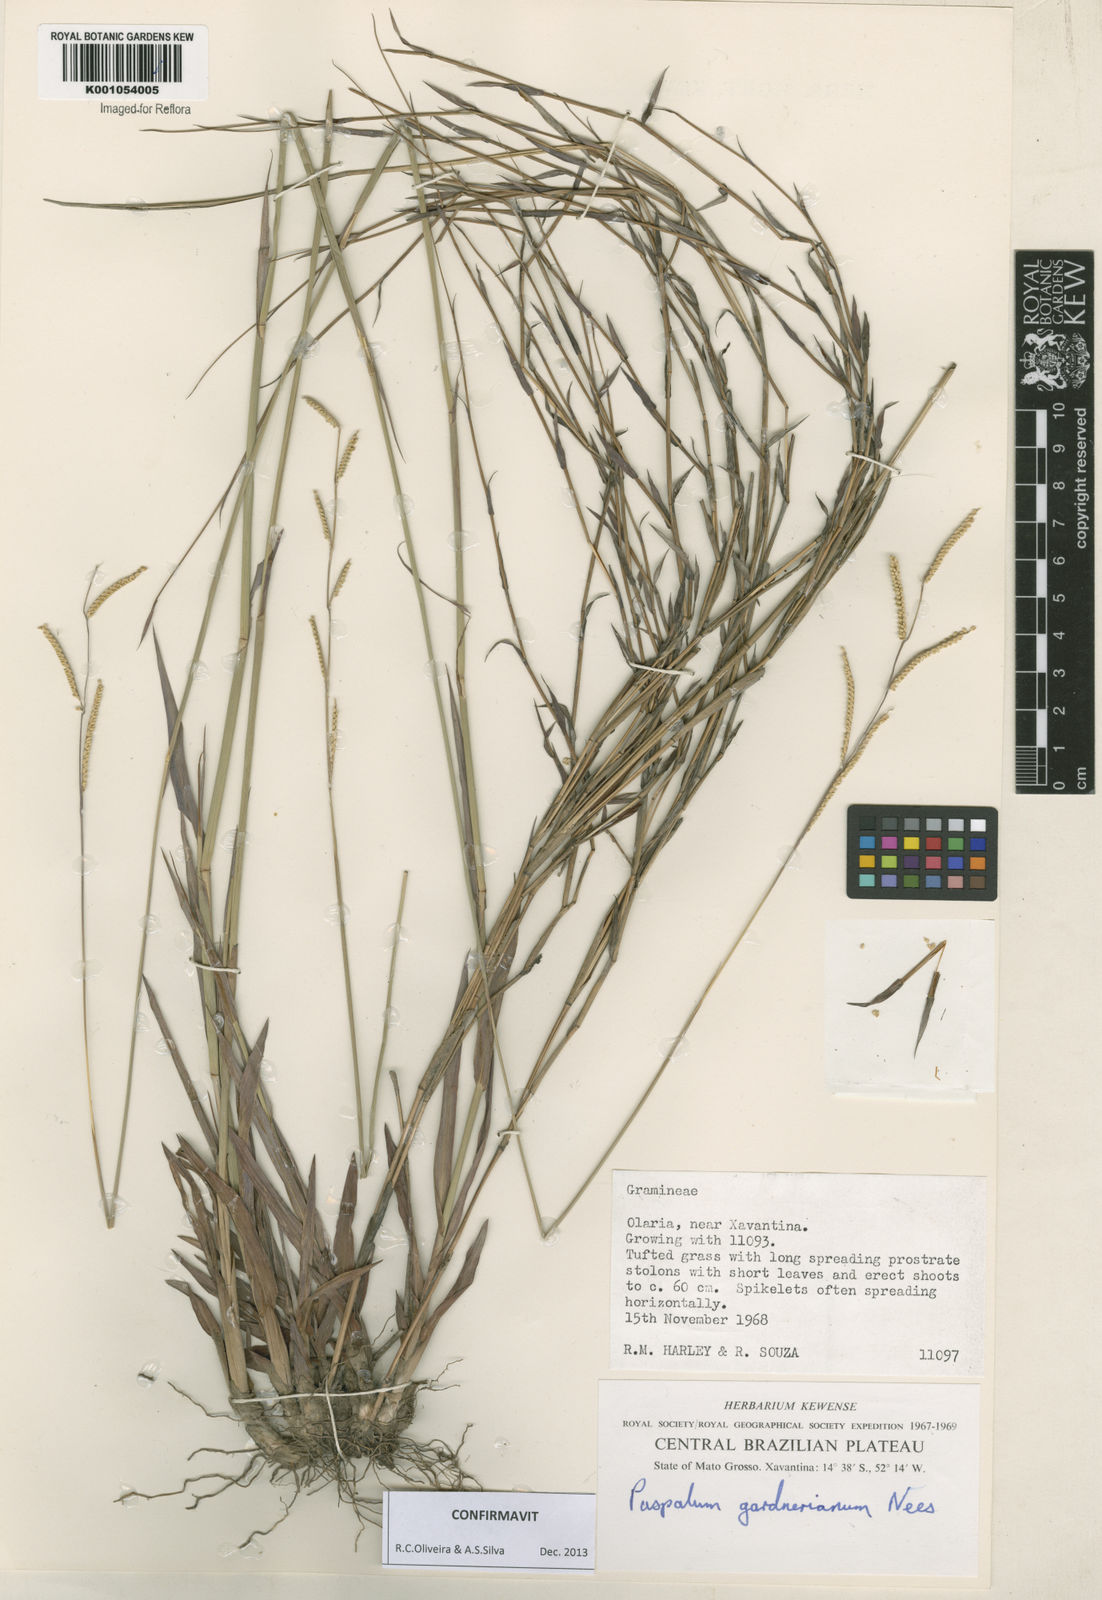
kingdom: Plantae
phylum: Tracheophyta
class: Liliopsida
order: Poales
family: Poaceae
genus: Paspalum
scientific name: Paspalum gardnerianum
